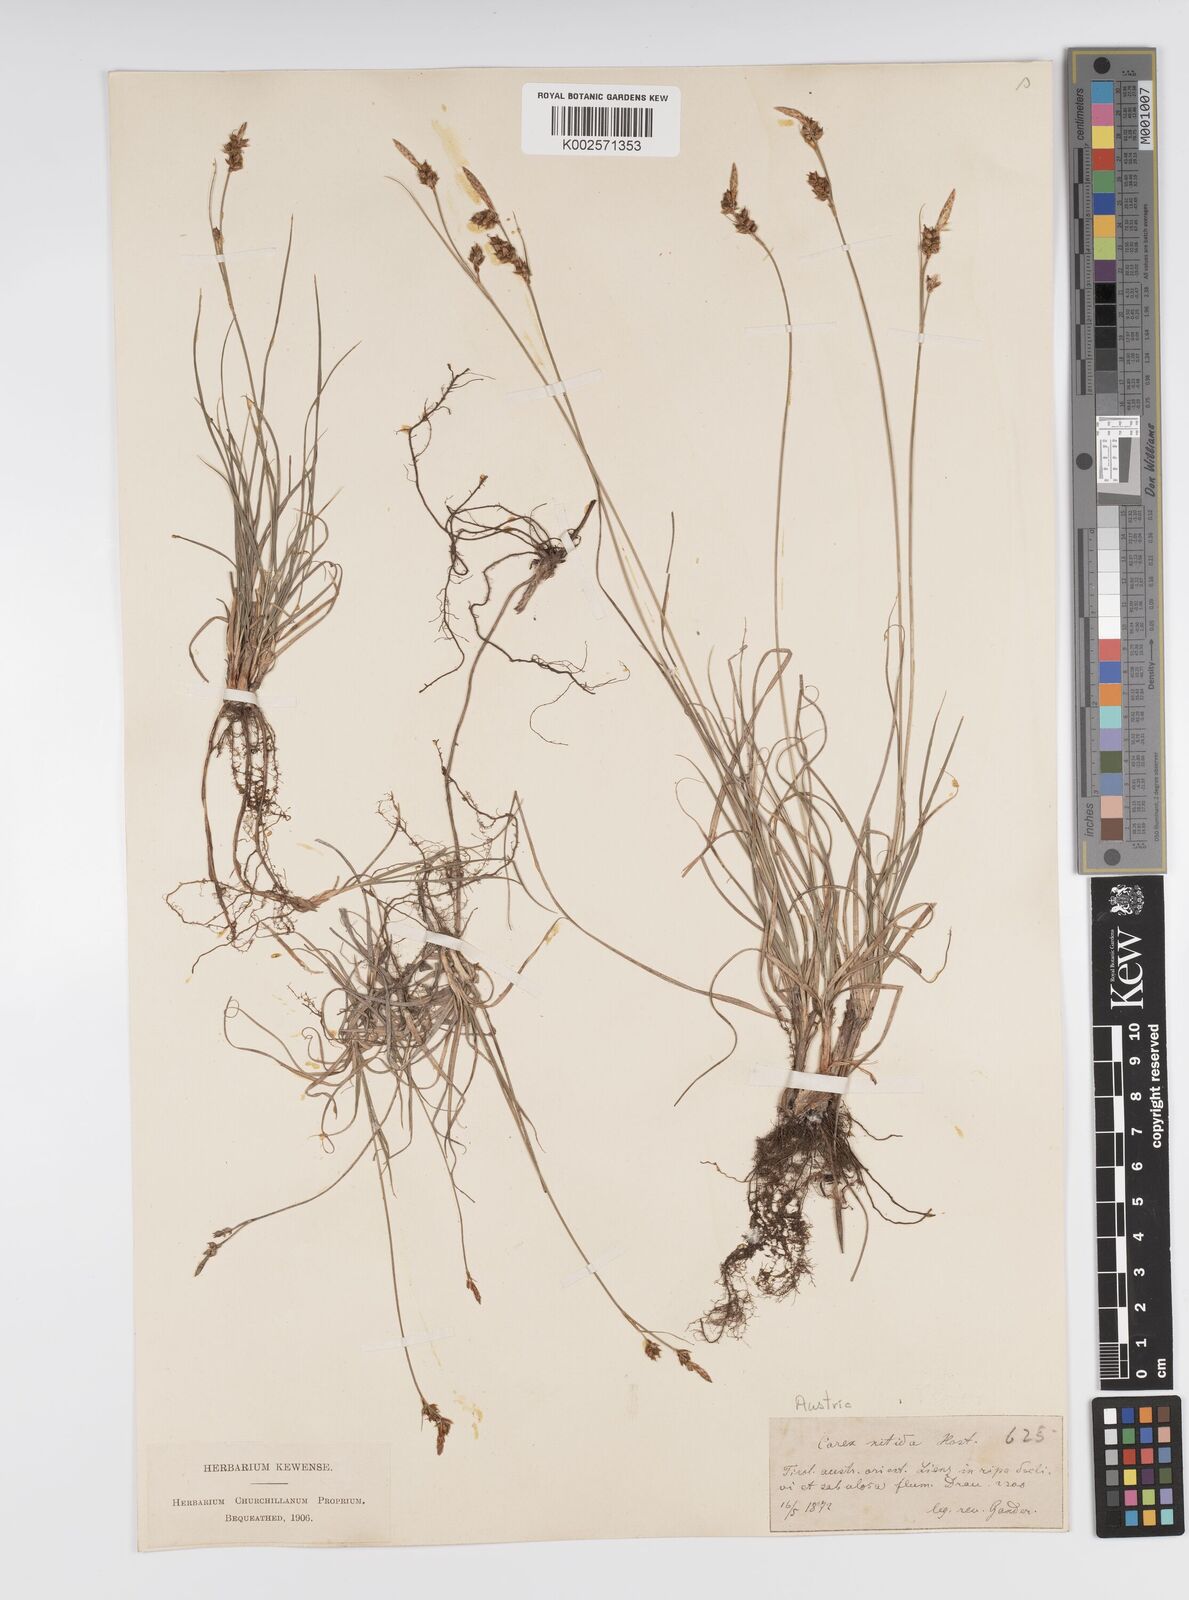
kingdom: Plantae
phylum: Tracheophyta
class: Liliopsida
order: Poales
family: Cyperaceae
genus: Carex
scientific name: Carex liparocarpos
